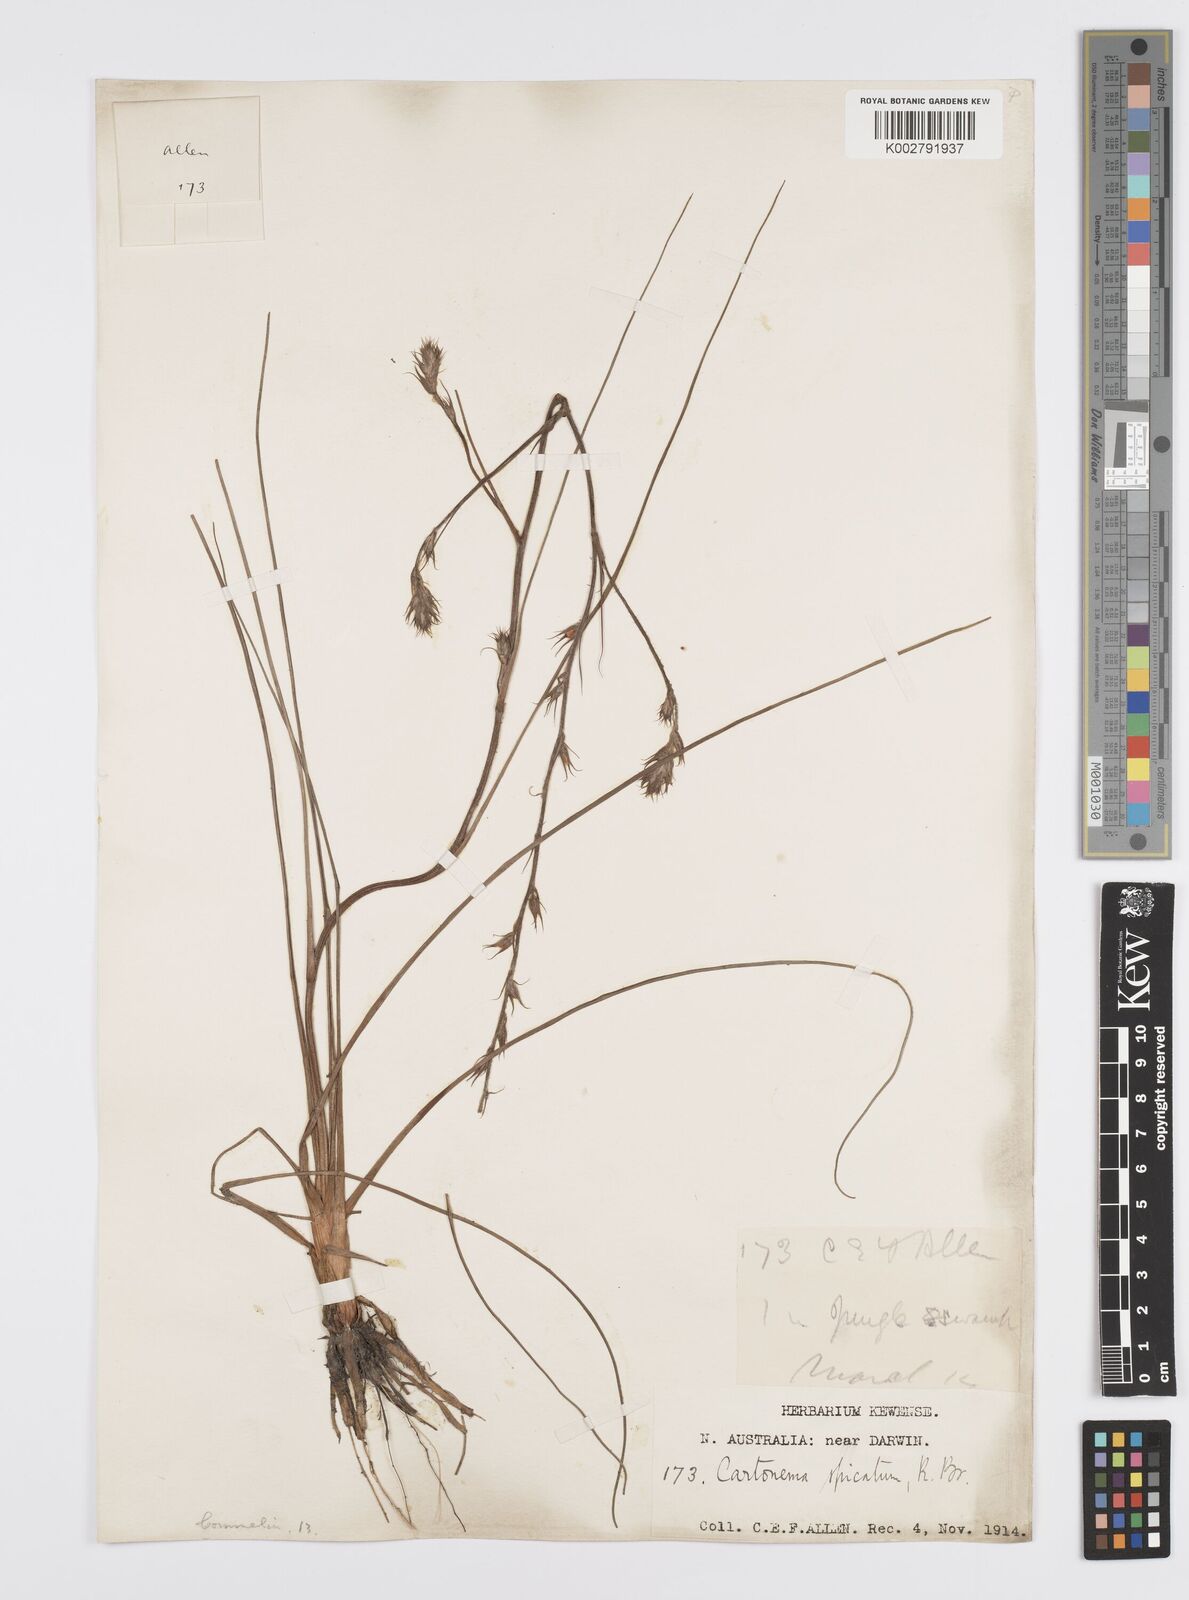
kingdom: Plantae
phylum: Tracheophyta
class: Liliopsida
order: Commelinales
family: Commelinaceae
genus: Cartonema
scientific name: Cartonema parviflorum
